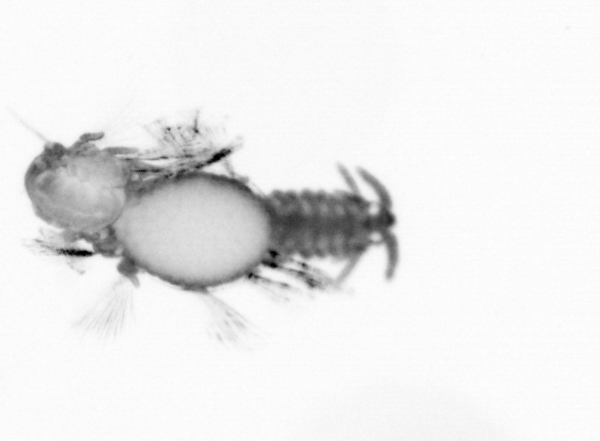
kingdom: Animalia
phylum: Annelida
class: Polychaeta
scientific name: Polychaeta
